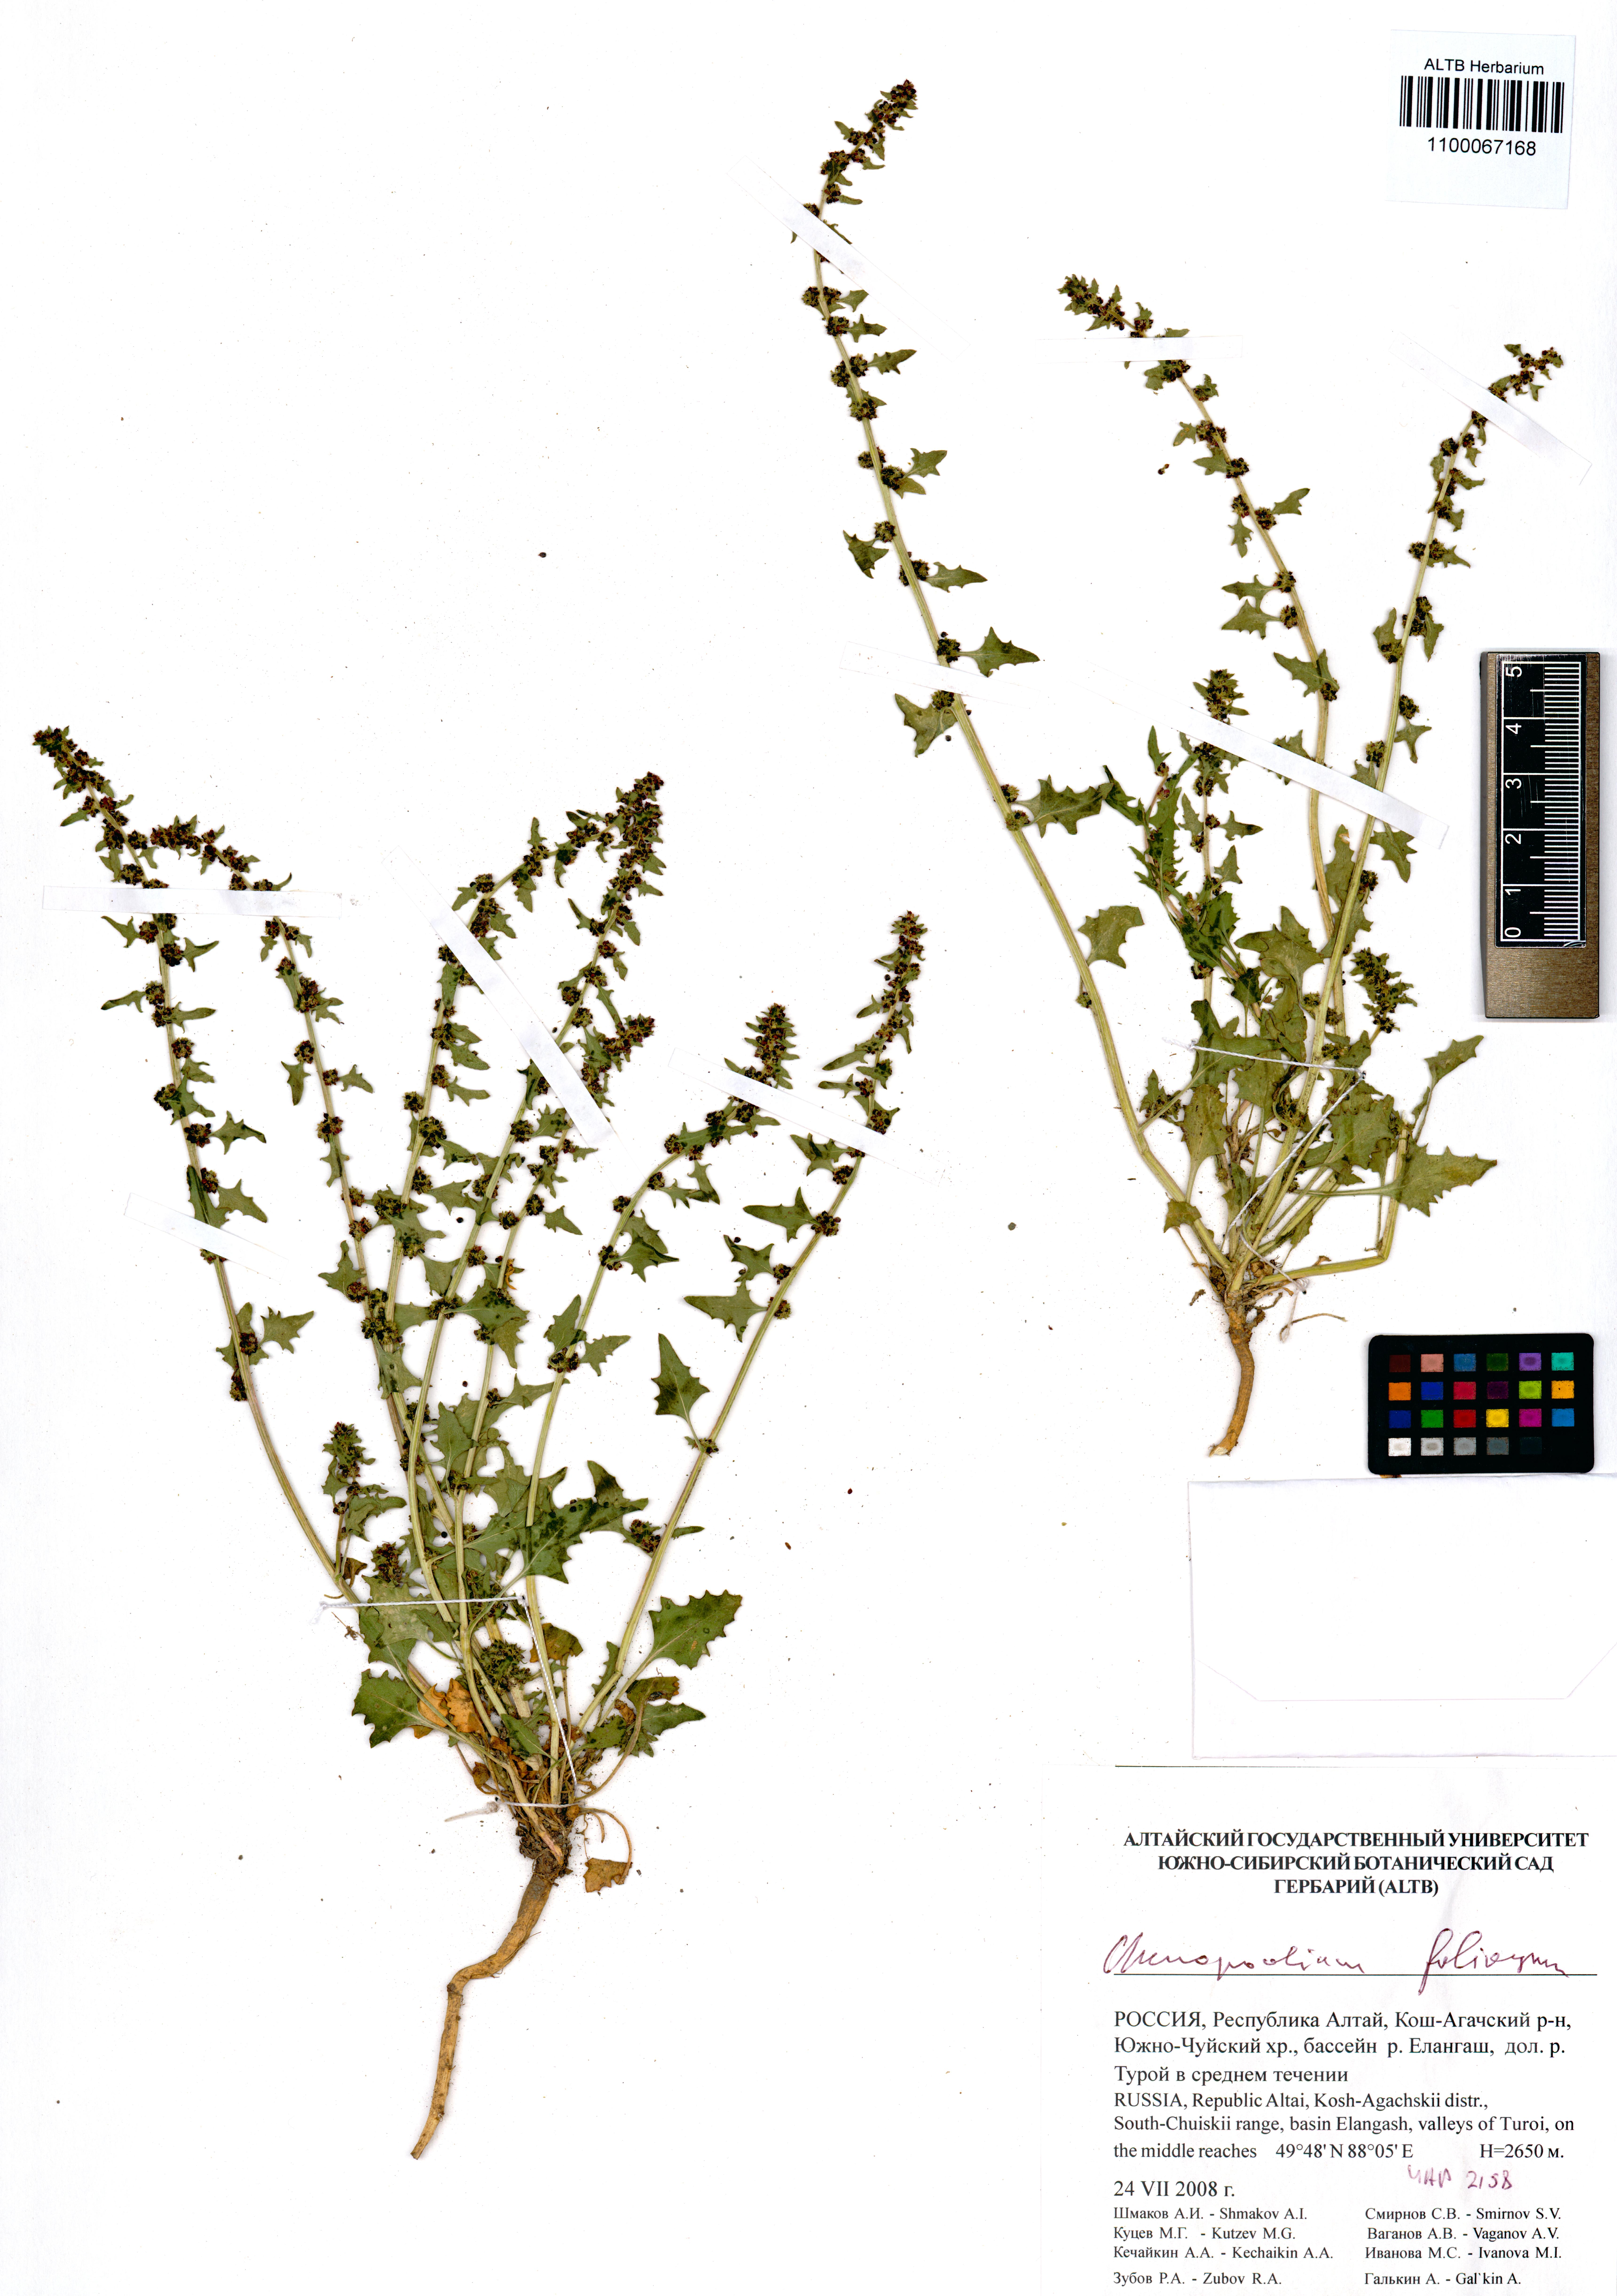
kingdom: Plantae
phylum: Tracheophyta
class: Magnoliopsida
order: Caryophyllales
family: Amaranthaceae
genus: Blitum
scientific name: Blitum virgatum
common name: Strawberry goosefoot
